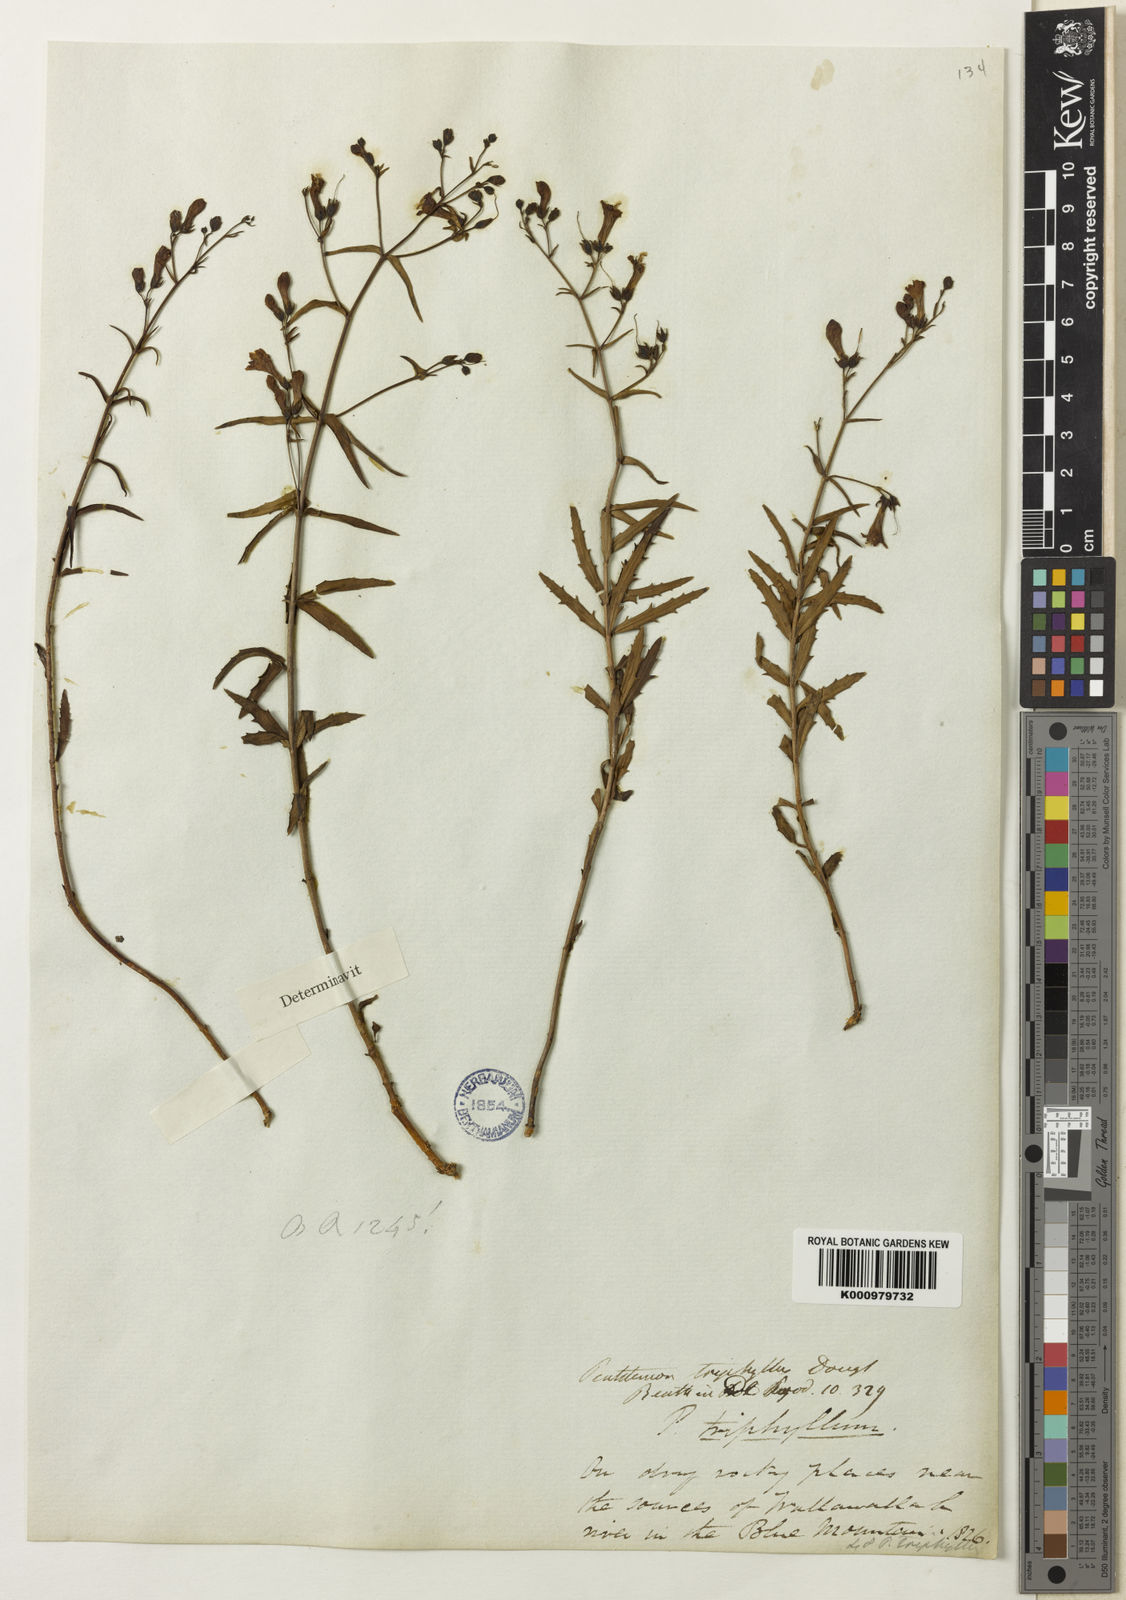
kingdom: Plantae
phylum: Tracheophyta
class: Magnoliopsida
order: Lamiales
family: Plantaginaceae
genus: Penstemon
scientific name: Penstemon triphyllus
